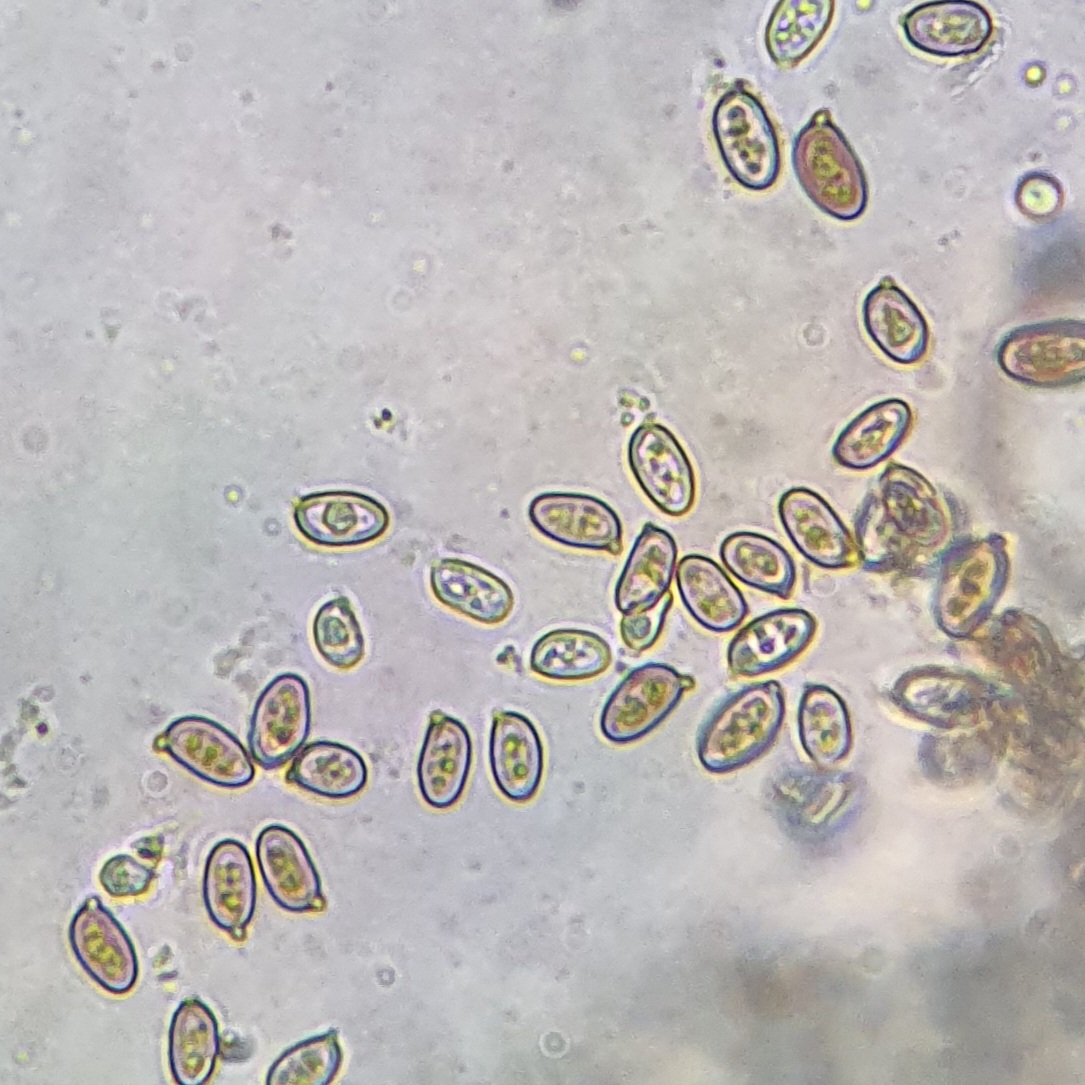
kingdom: Fungi
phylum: Basidiomycota
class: Agaricomycetes
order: Agaricales
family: Agaricaceae
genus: Agaricus
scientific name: Agaricus langei
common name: stor blod-champignon
